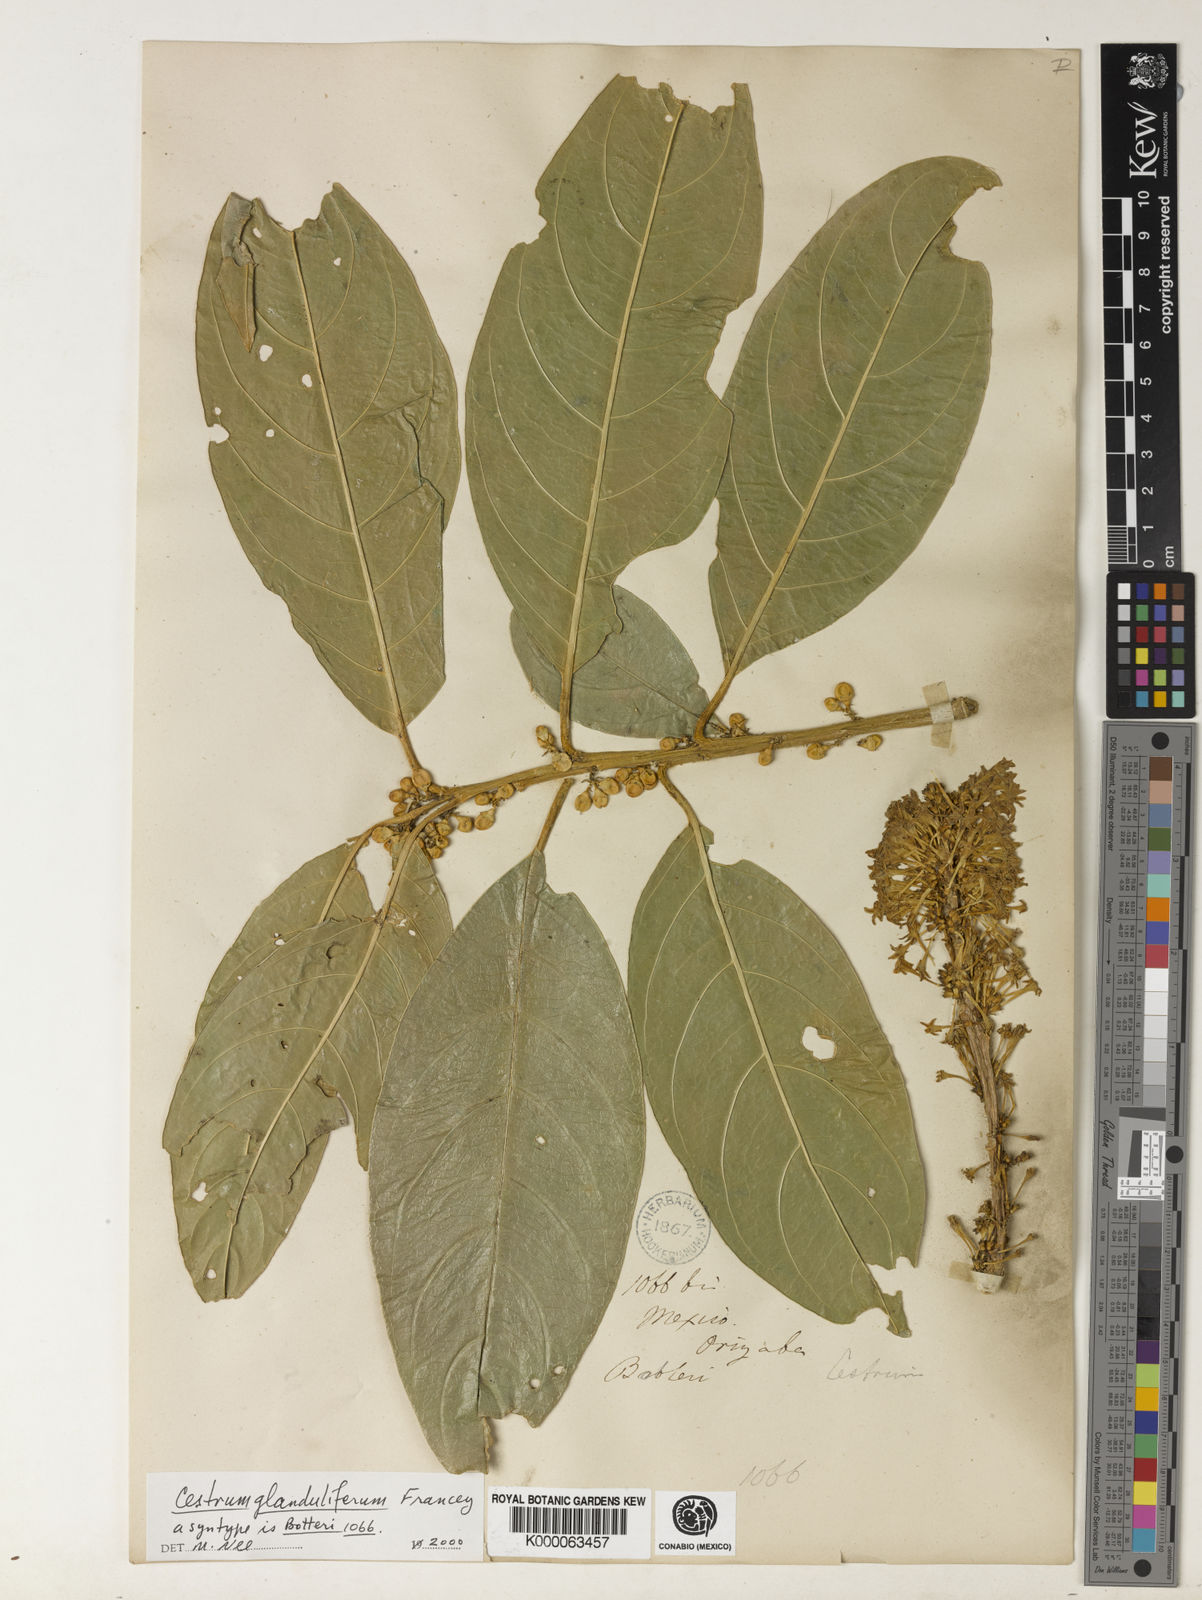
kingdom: Plantae
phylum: Tracheophyta
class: Magnoliopsida
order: Solanales
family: Solanaceae
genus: Cestrum
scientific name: Cestrum glanduliferum
